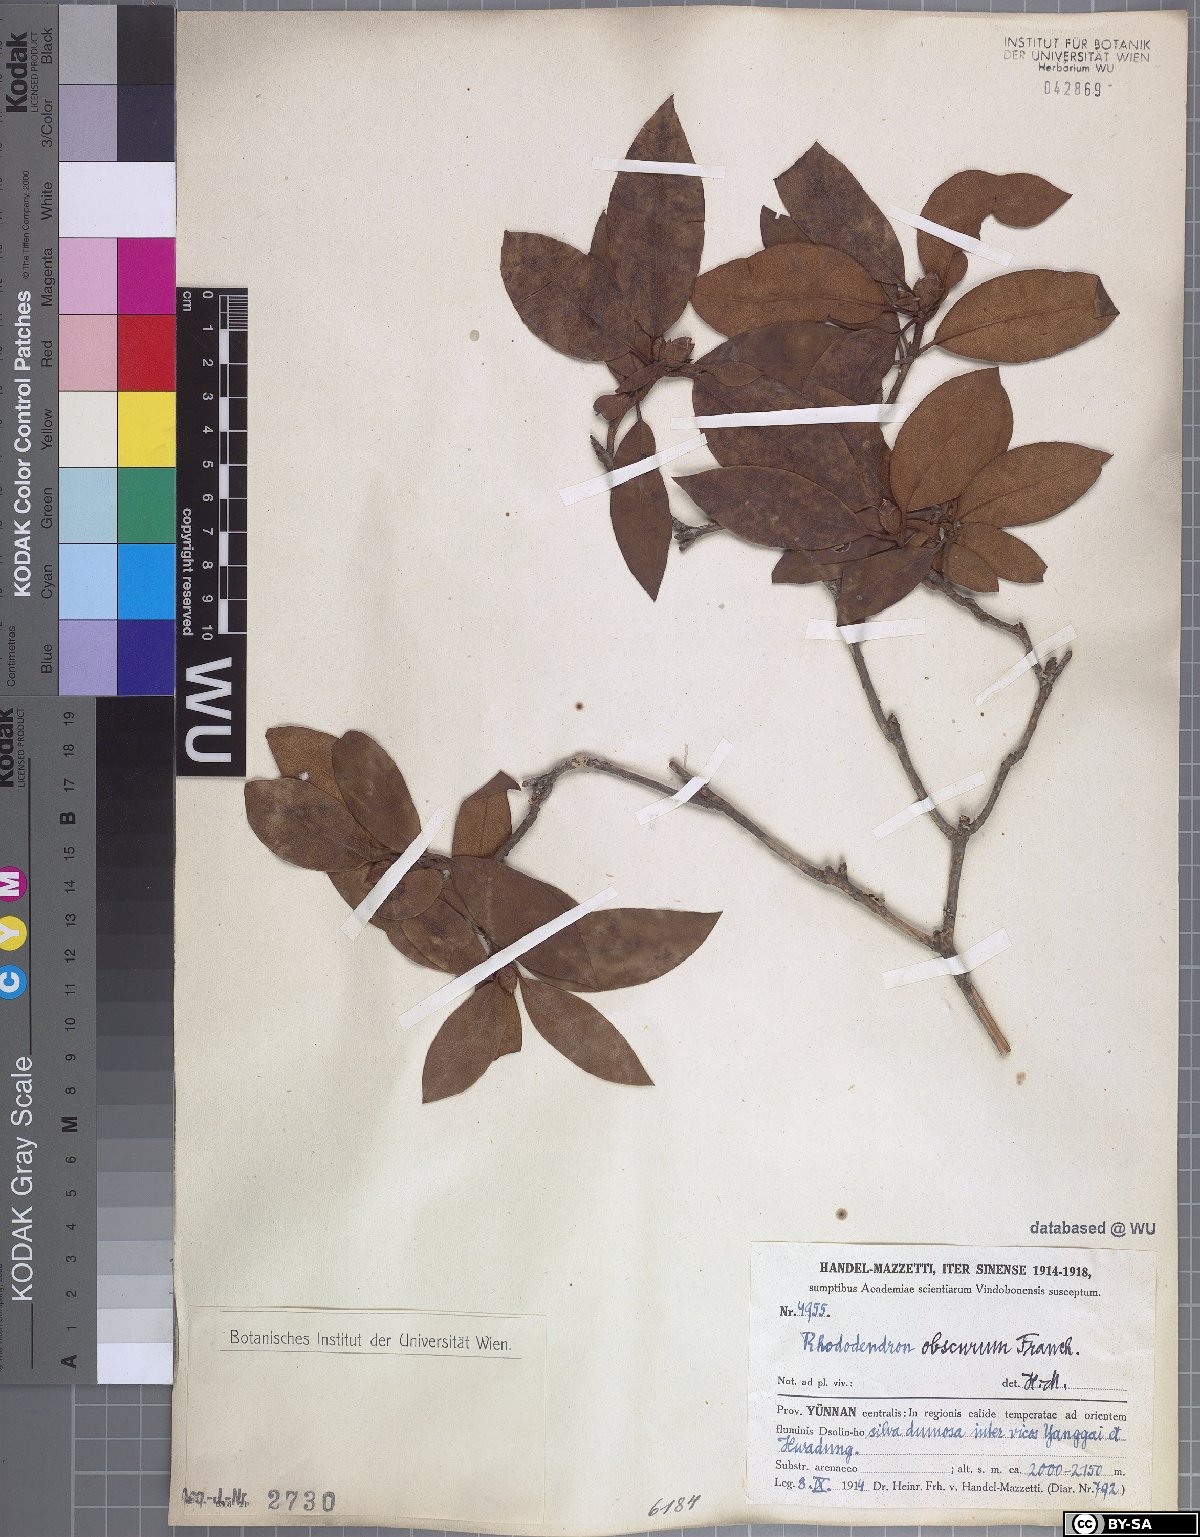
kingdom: Plantae
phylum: Tracheophyta
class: Magnoliopsida
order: Ericales
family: Ericaceae
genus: Rhododendron
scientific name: Rhododendron benomense
